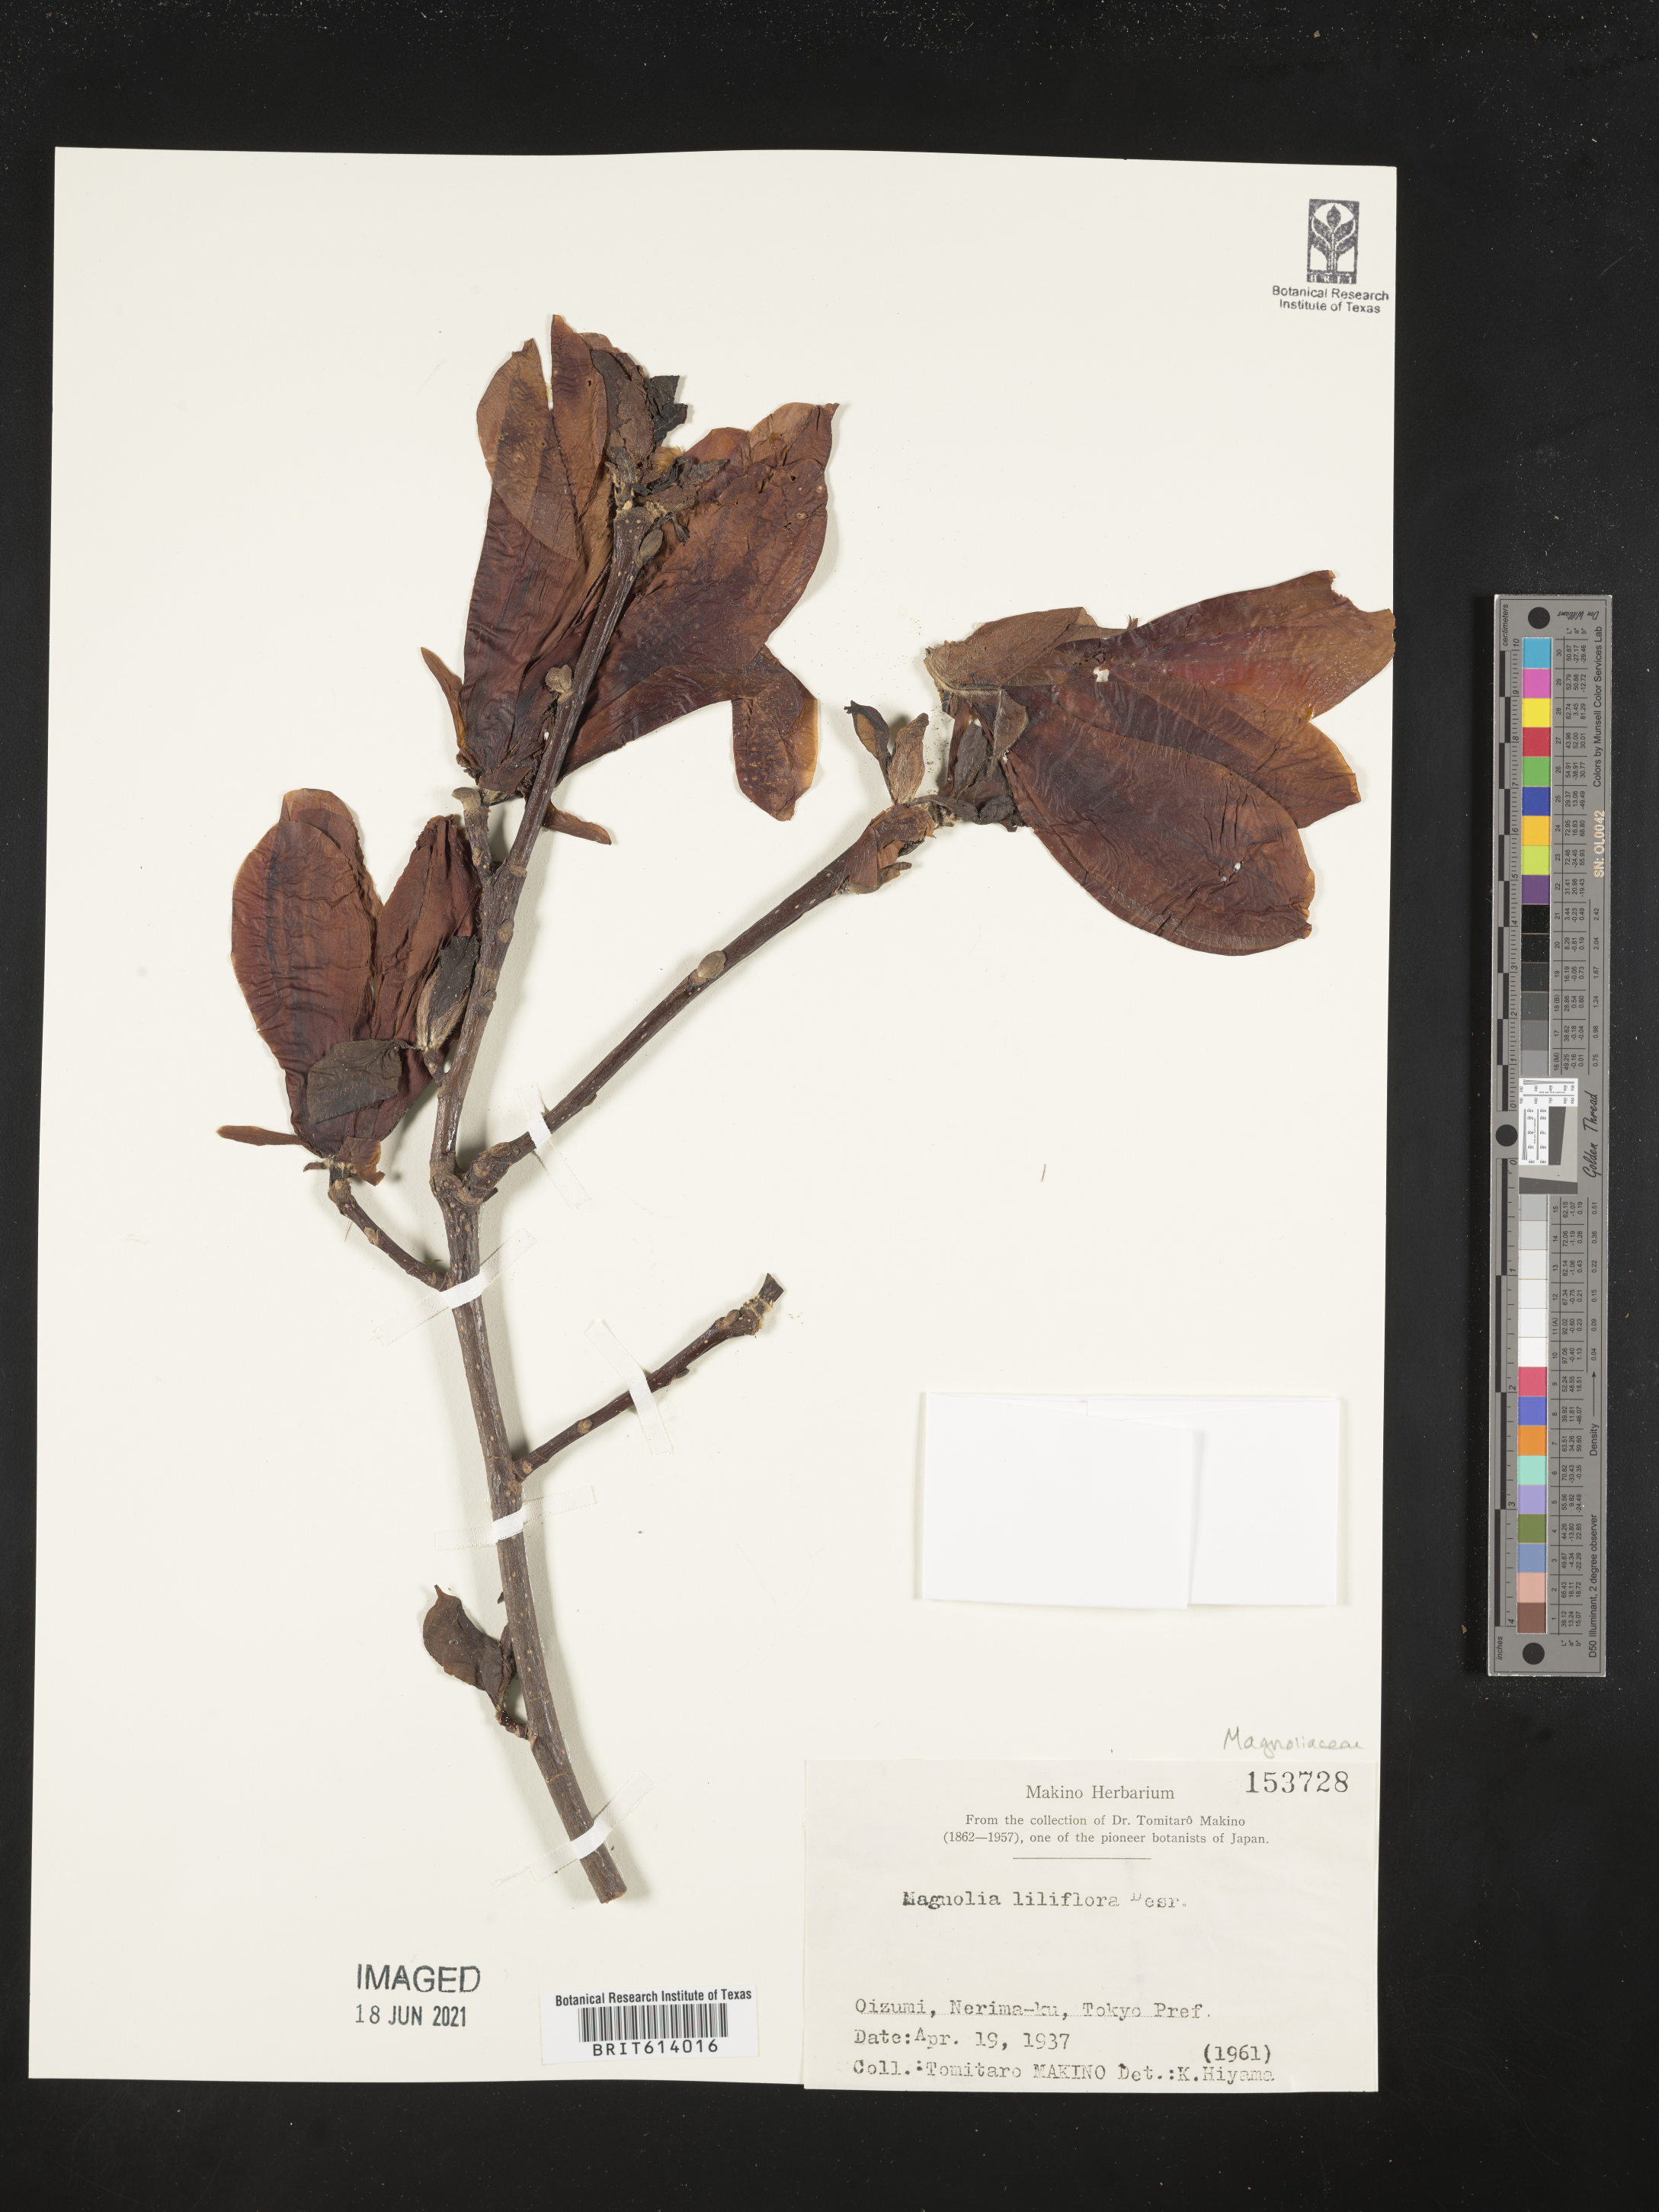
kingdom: Plantae
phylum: Tracheophyta
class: Magnoliopsida
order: Magnoliales
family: Magnoliaceae
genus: Magnolia
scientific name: Magnolia liliifera
